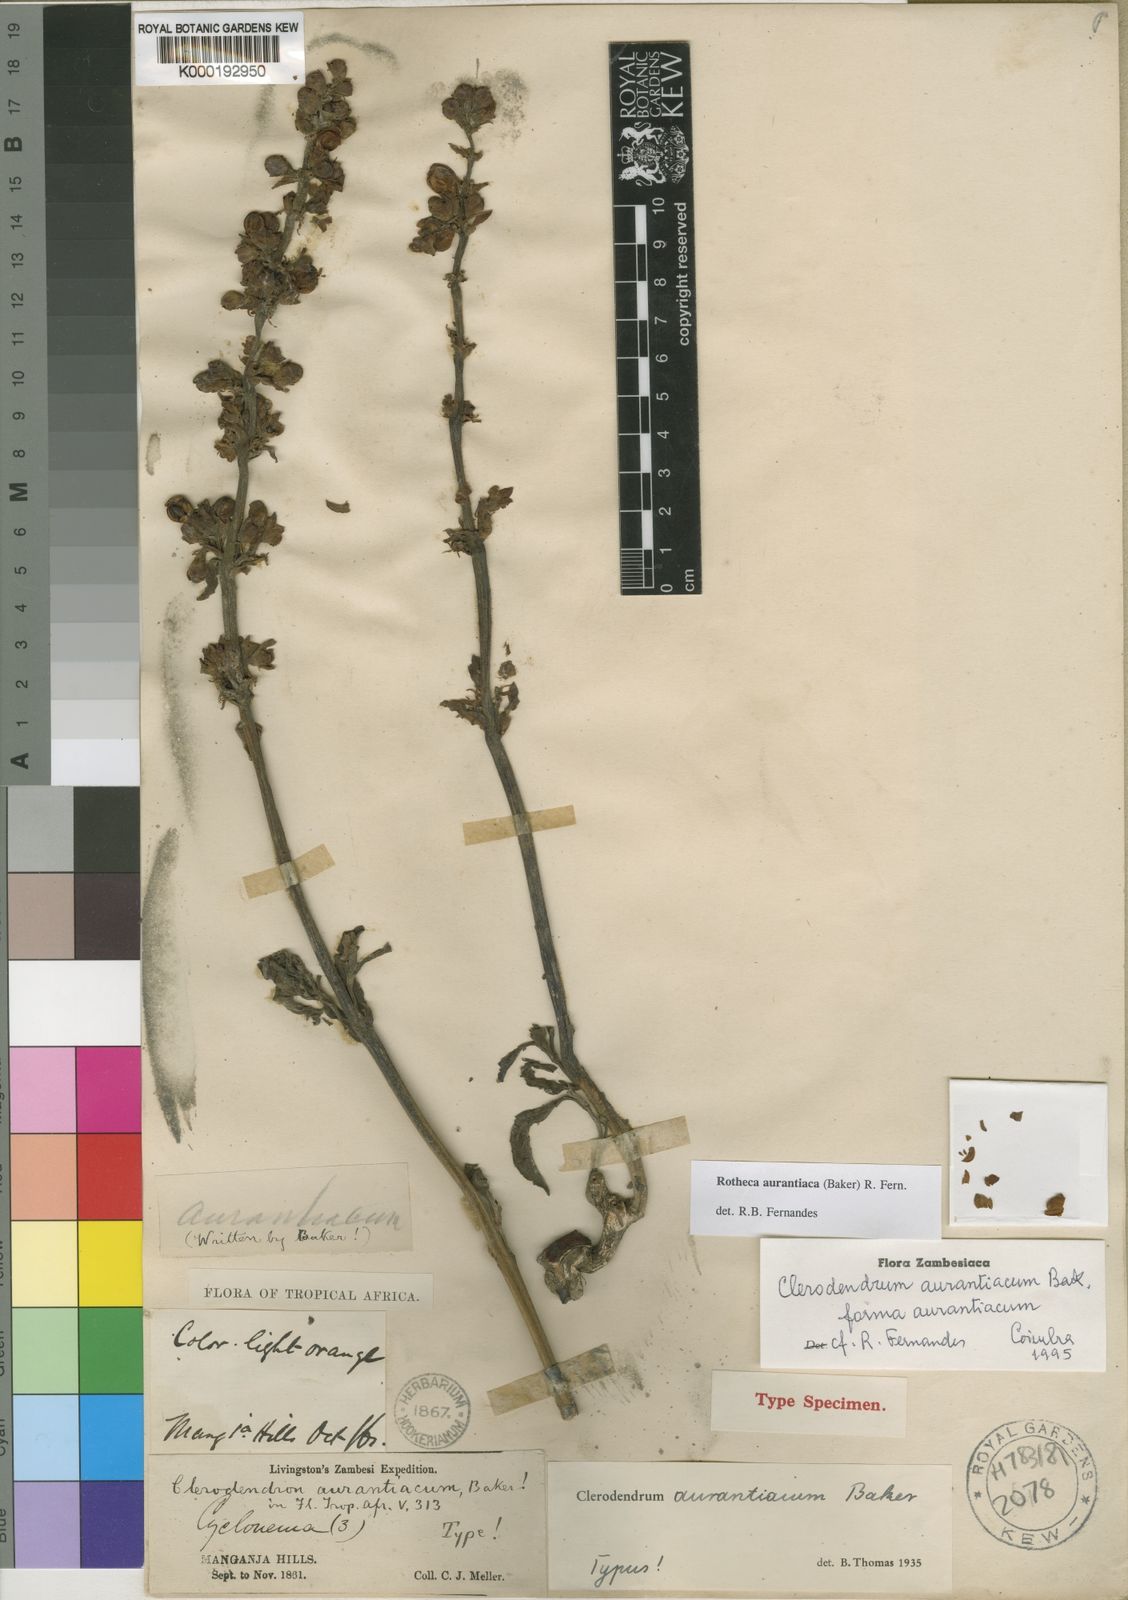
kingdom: Plantae
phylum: Tracheophyta
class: Magnoliopsida
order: Lamiales
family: Lamiaceae
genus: Rotheca
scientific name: Rotheca aurantiaca
